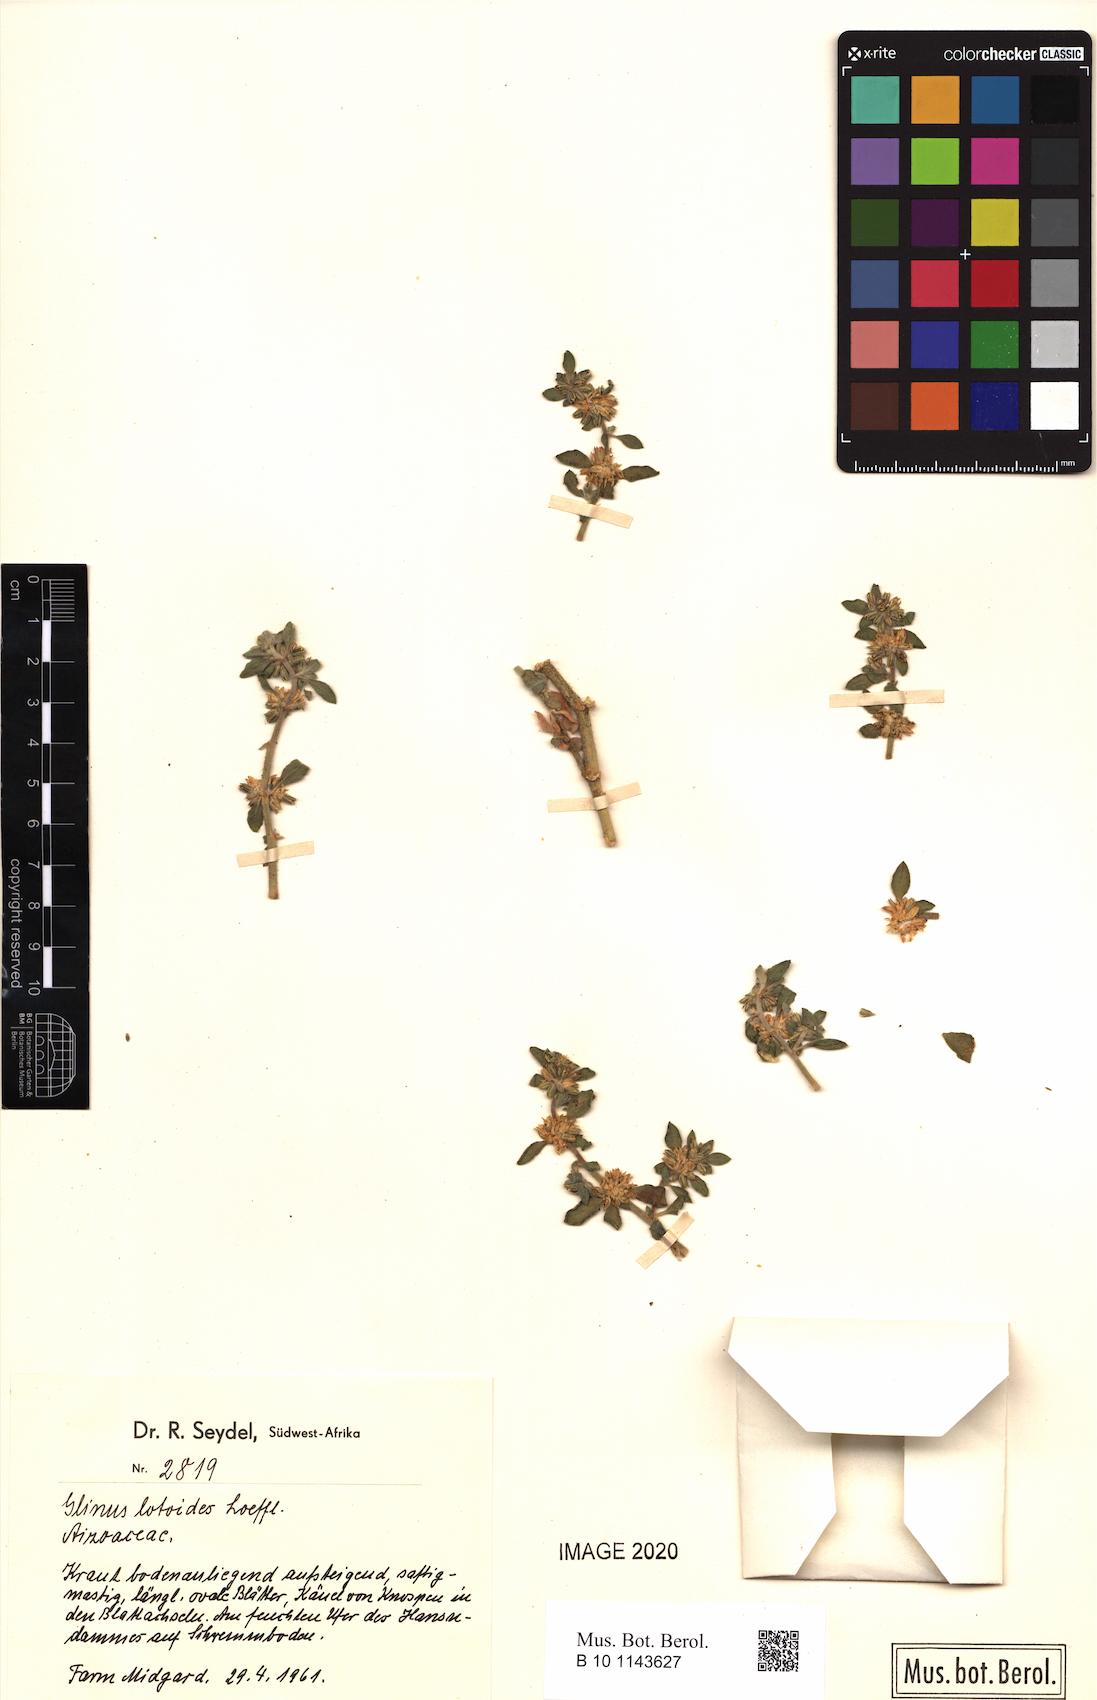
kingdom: Plantae
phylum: Tracheophyta
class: Magnoliopsida
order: Caryophyllales
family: Molluginaceae
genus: Glinus
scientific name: Glinus hirtus
